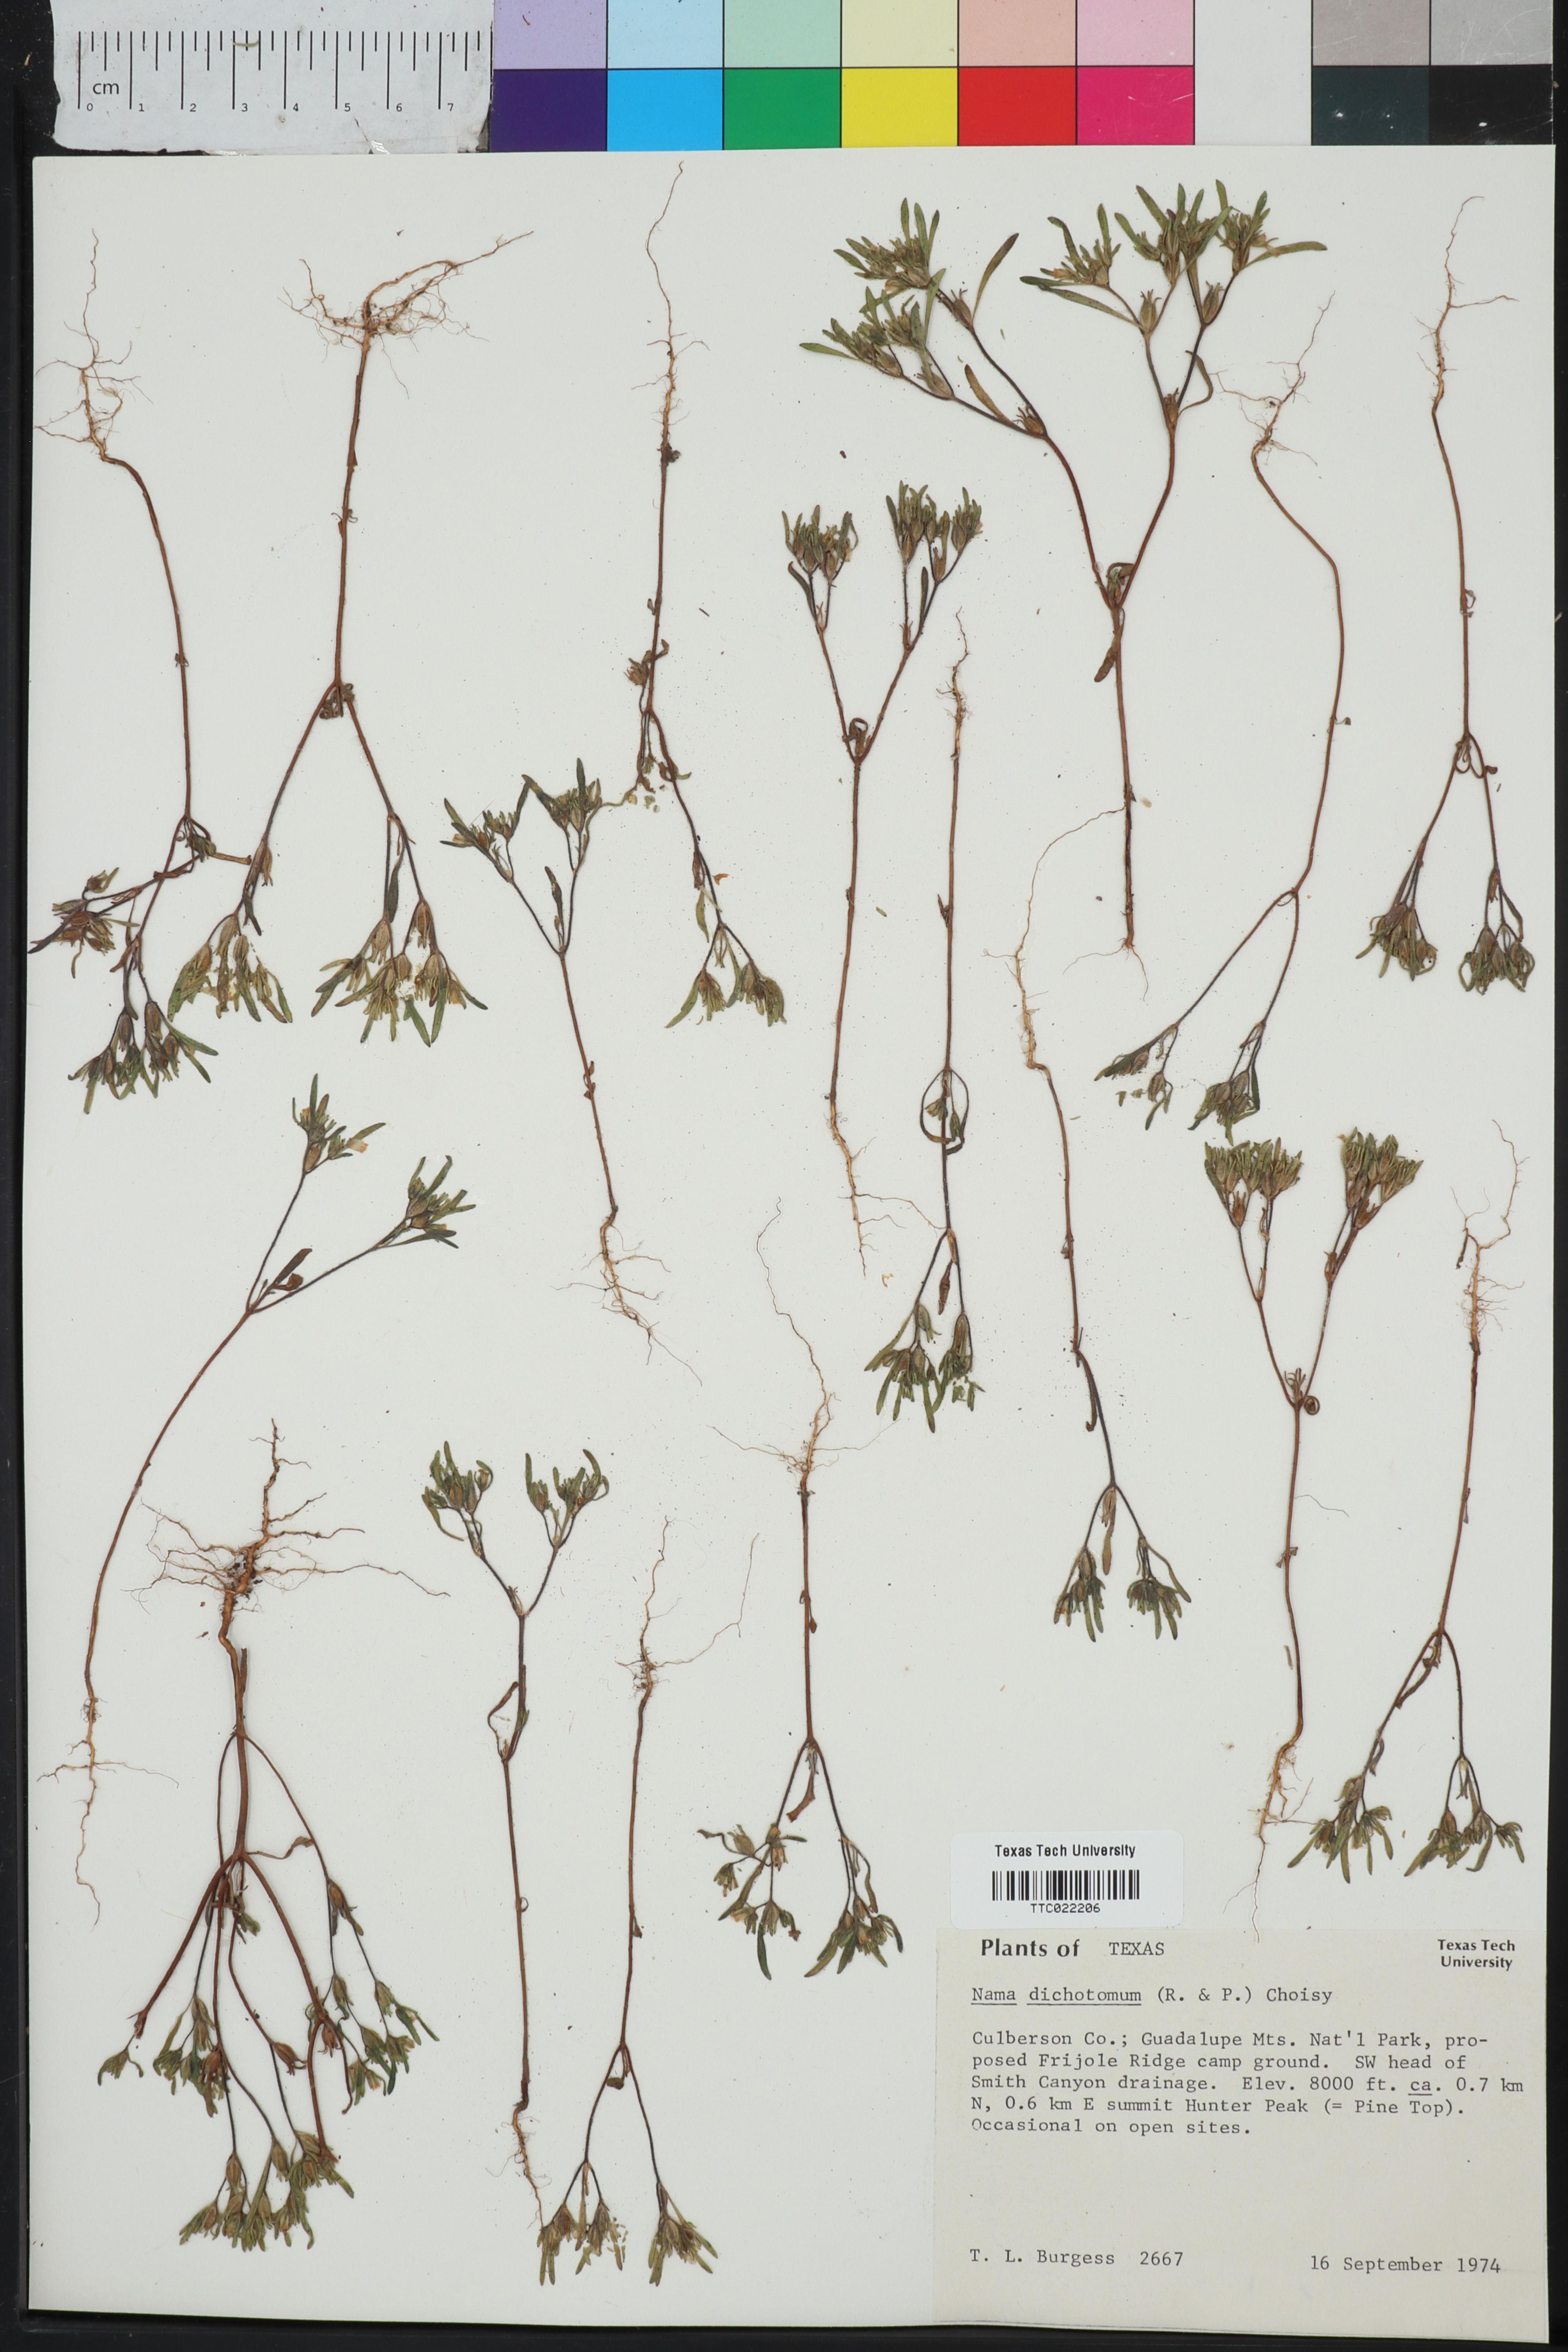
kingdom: Plantae
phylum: Tracheophyta
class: Magnoliopsida
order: Boraginales
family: Namaceae
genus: Nama
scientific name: Nama dichotoma
